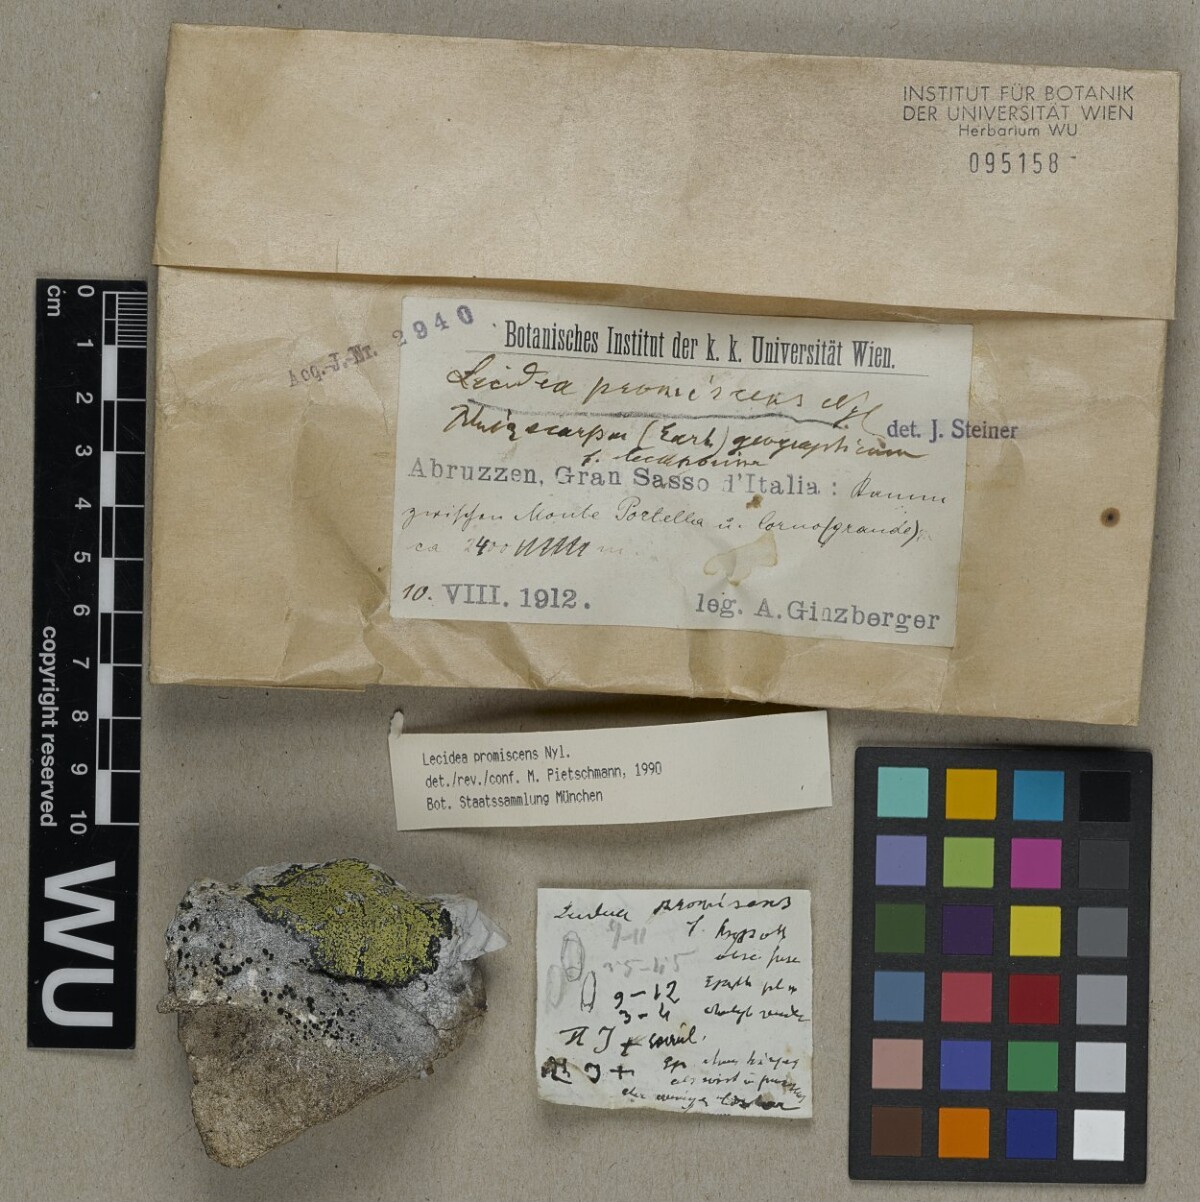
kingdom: Fungi
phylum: Ascomycota
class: Lecanoromycetes
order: Lecideales
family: Lecideaceae
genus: Lecidea
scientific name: Lecidea promiscens
